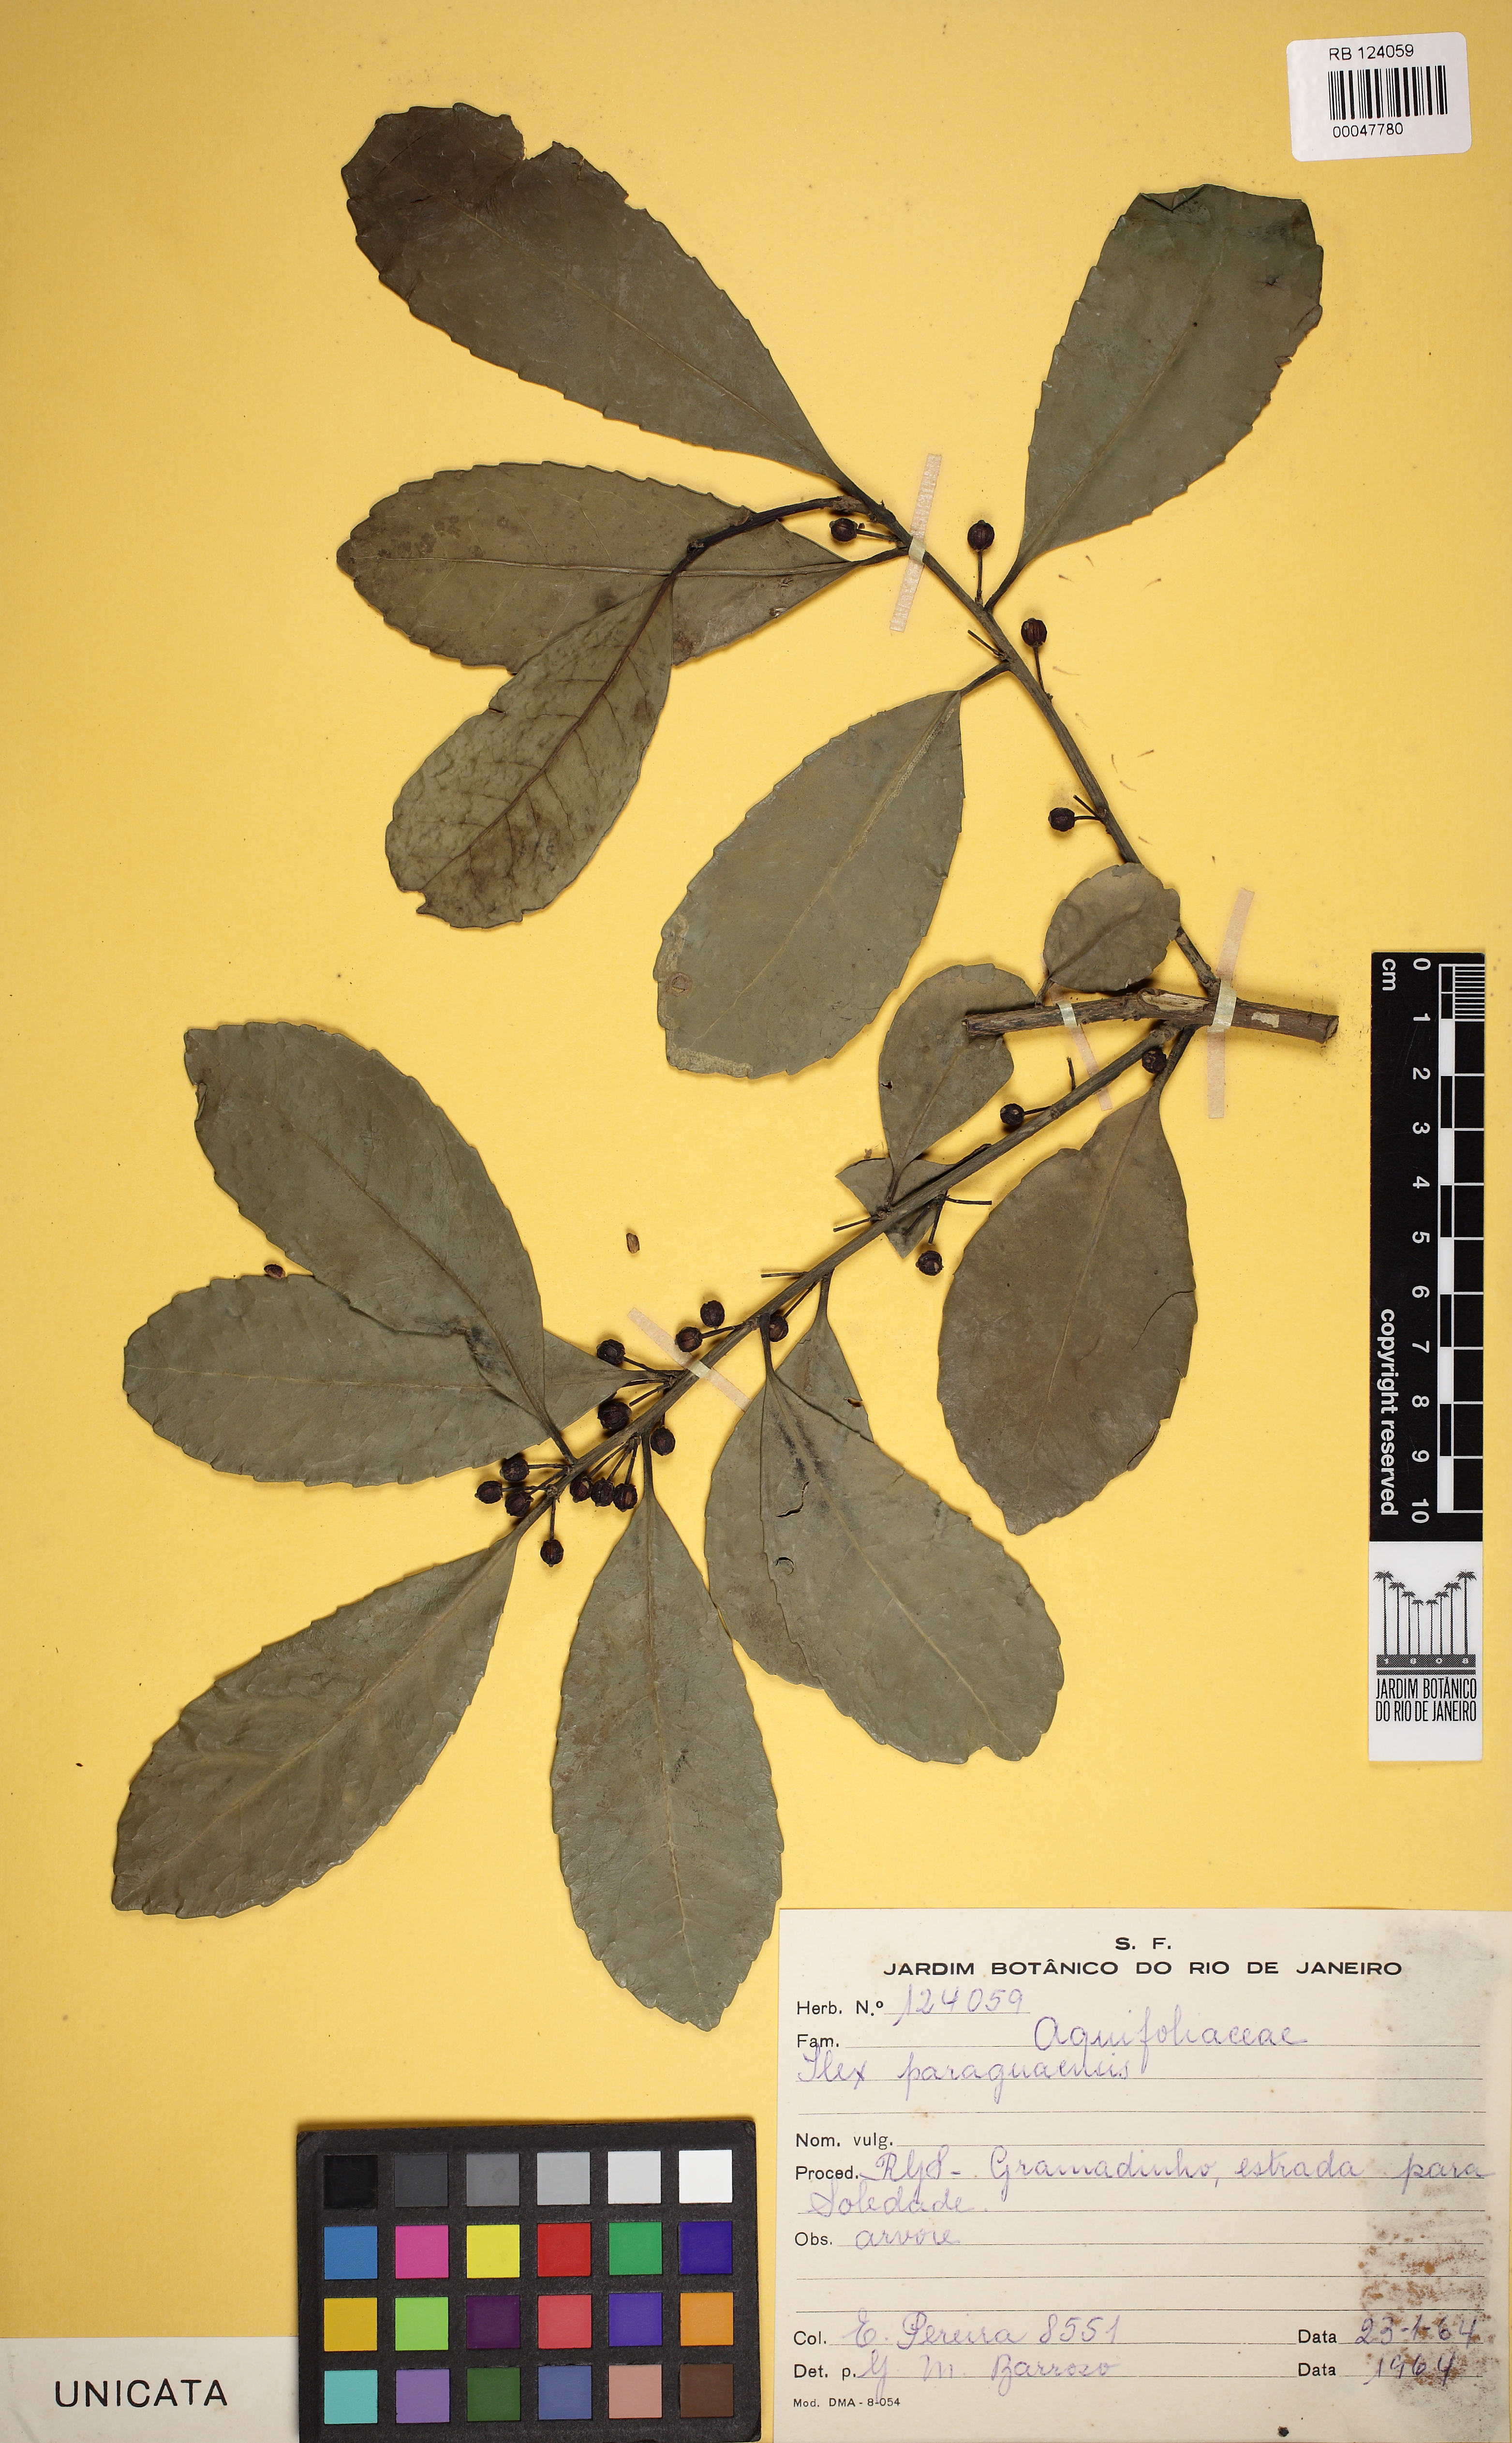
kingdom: Plantae
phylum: Tracheophyta
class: Magnoliopsida
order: Aquifoliales
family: Aquifoliaceae
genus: Ilex
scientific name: Ilex paraguariensis
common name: Paraguay tea
